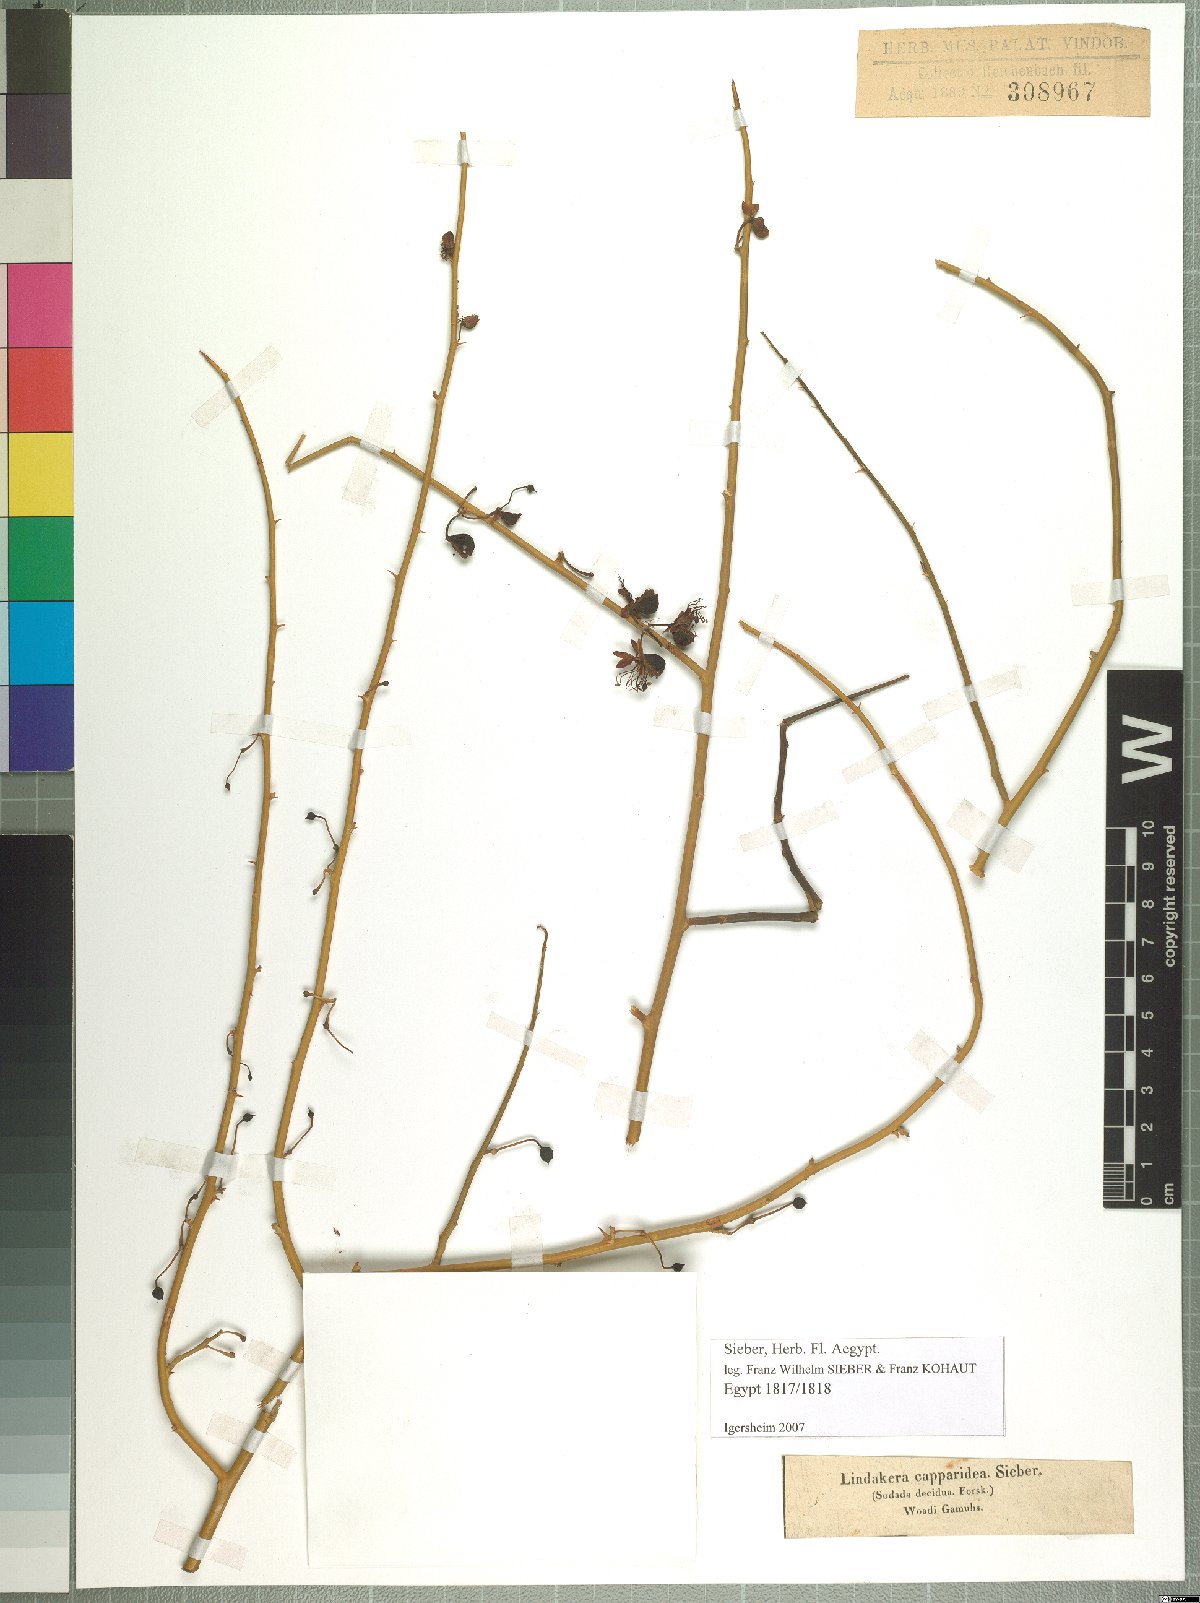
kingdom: Plantae
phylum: Tracheophyta
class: Magnoliopsida
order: Brassicales
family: Capparaceae
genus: Capparis
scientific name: Capparis decidua
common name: Sodada
